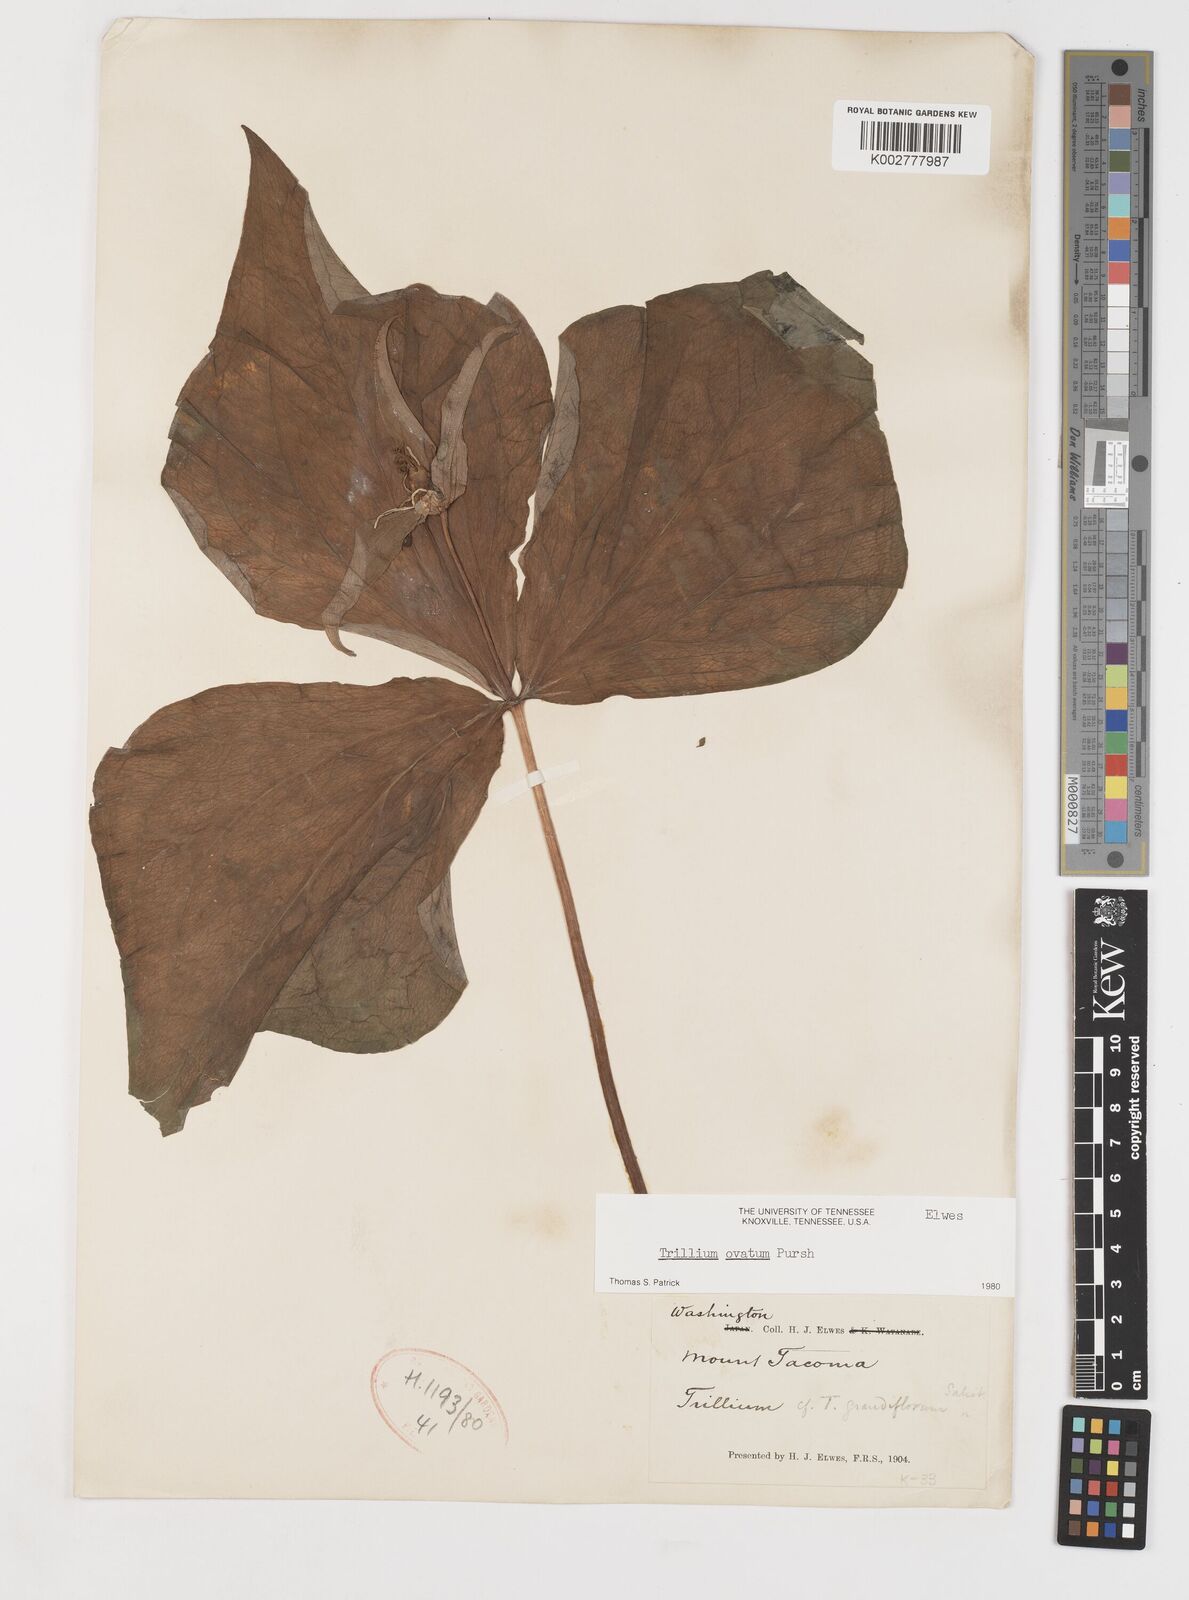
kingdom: Plantae
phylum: Tracheophyta
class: Liliopsida
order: Liliales
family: Melanthiaceae
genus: Trillium
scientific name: Trillium ovatum
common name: Pacific trillium
